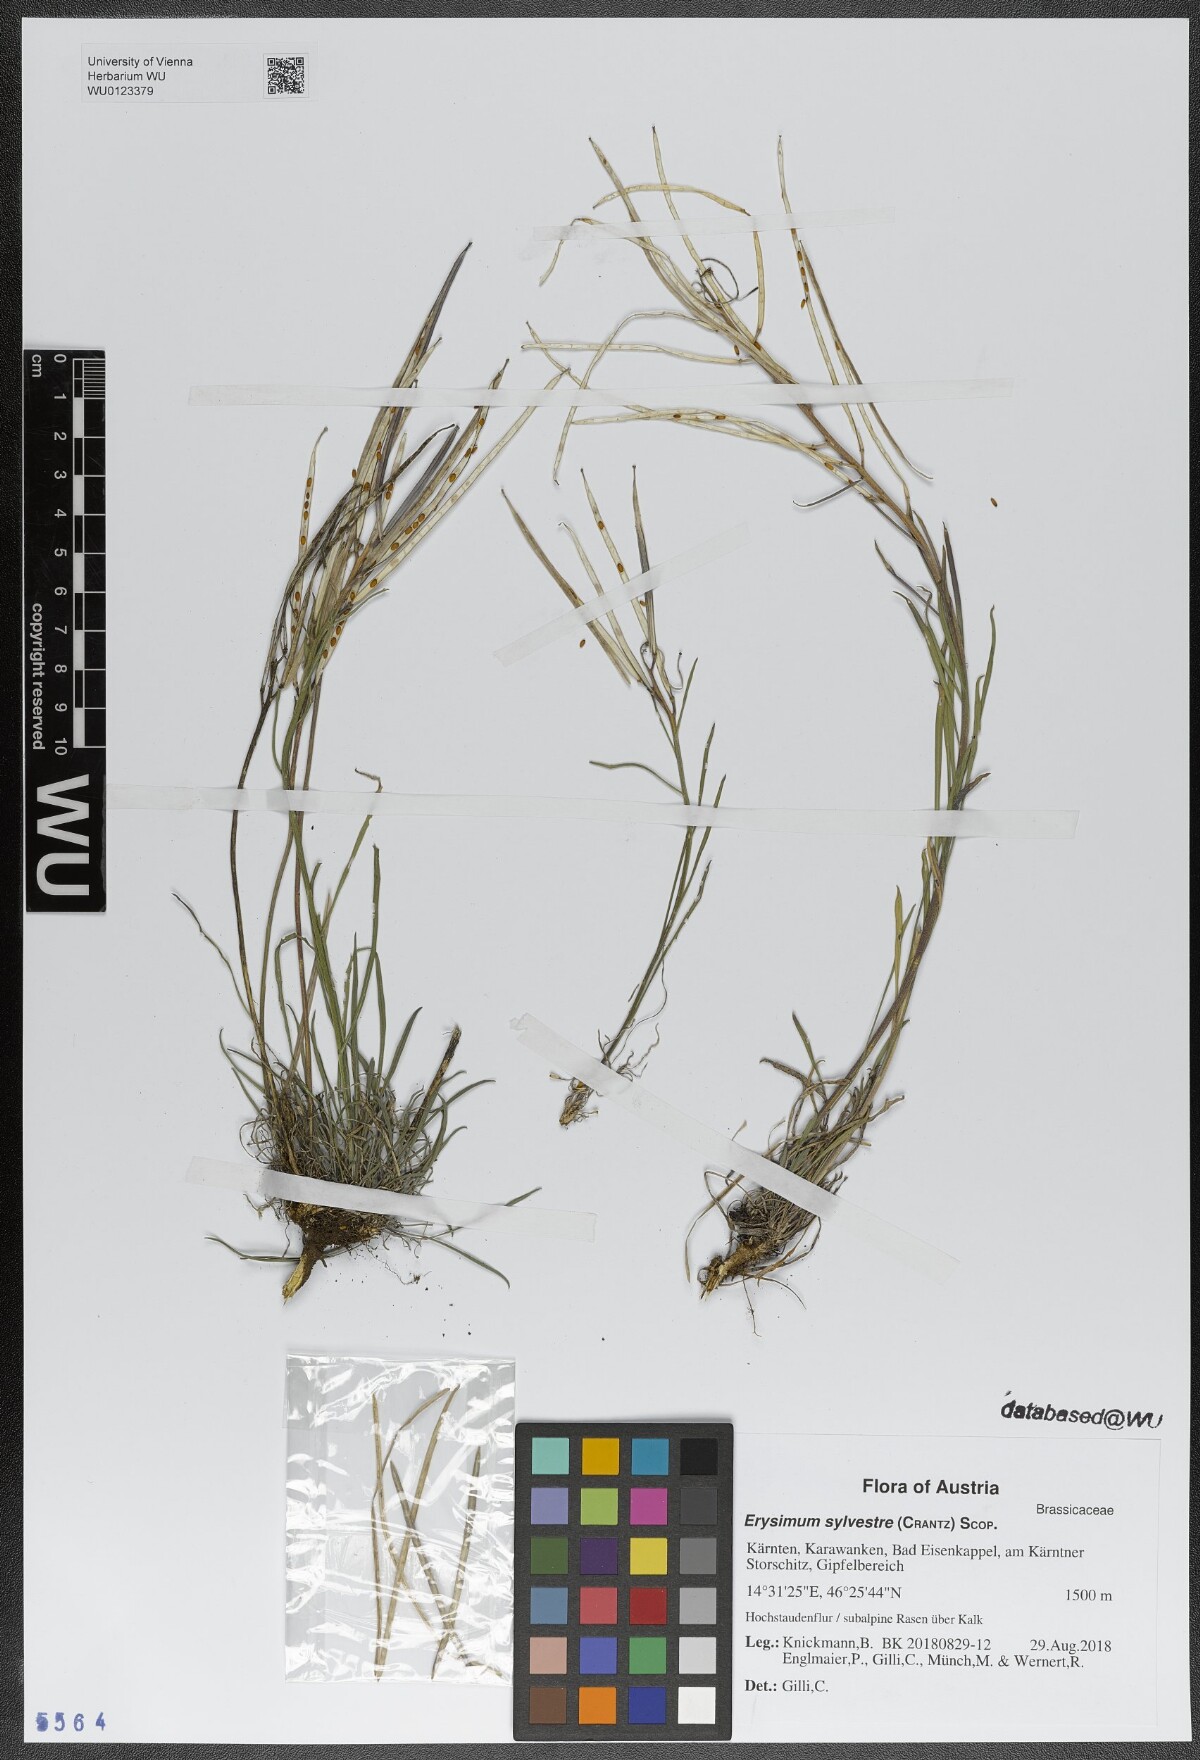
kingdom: Plantae
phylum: Tracheophyta
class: Magnoliopsida
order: Brassicales
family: Brassicaceae
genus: Erysimum
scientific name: Erysimum sylvestre
